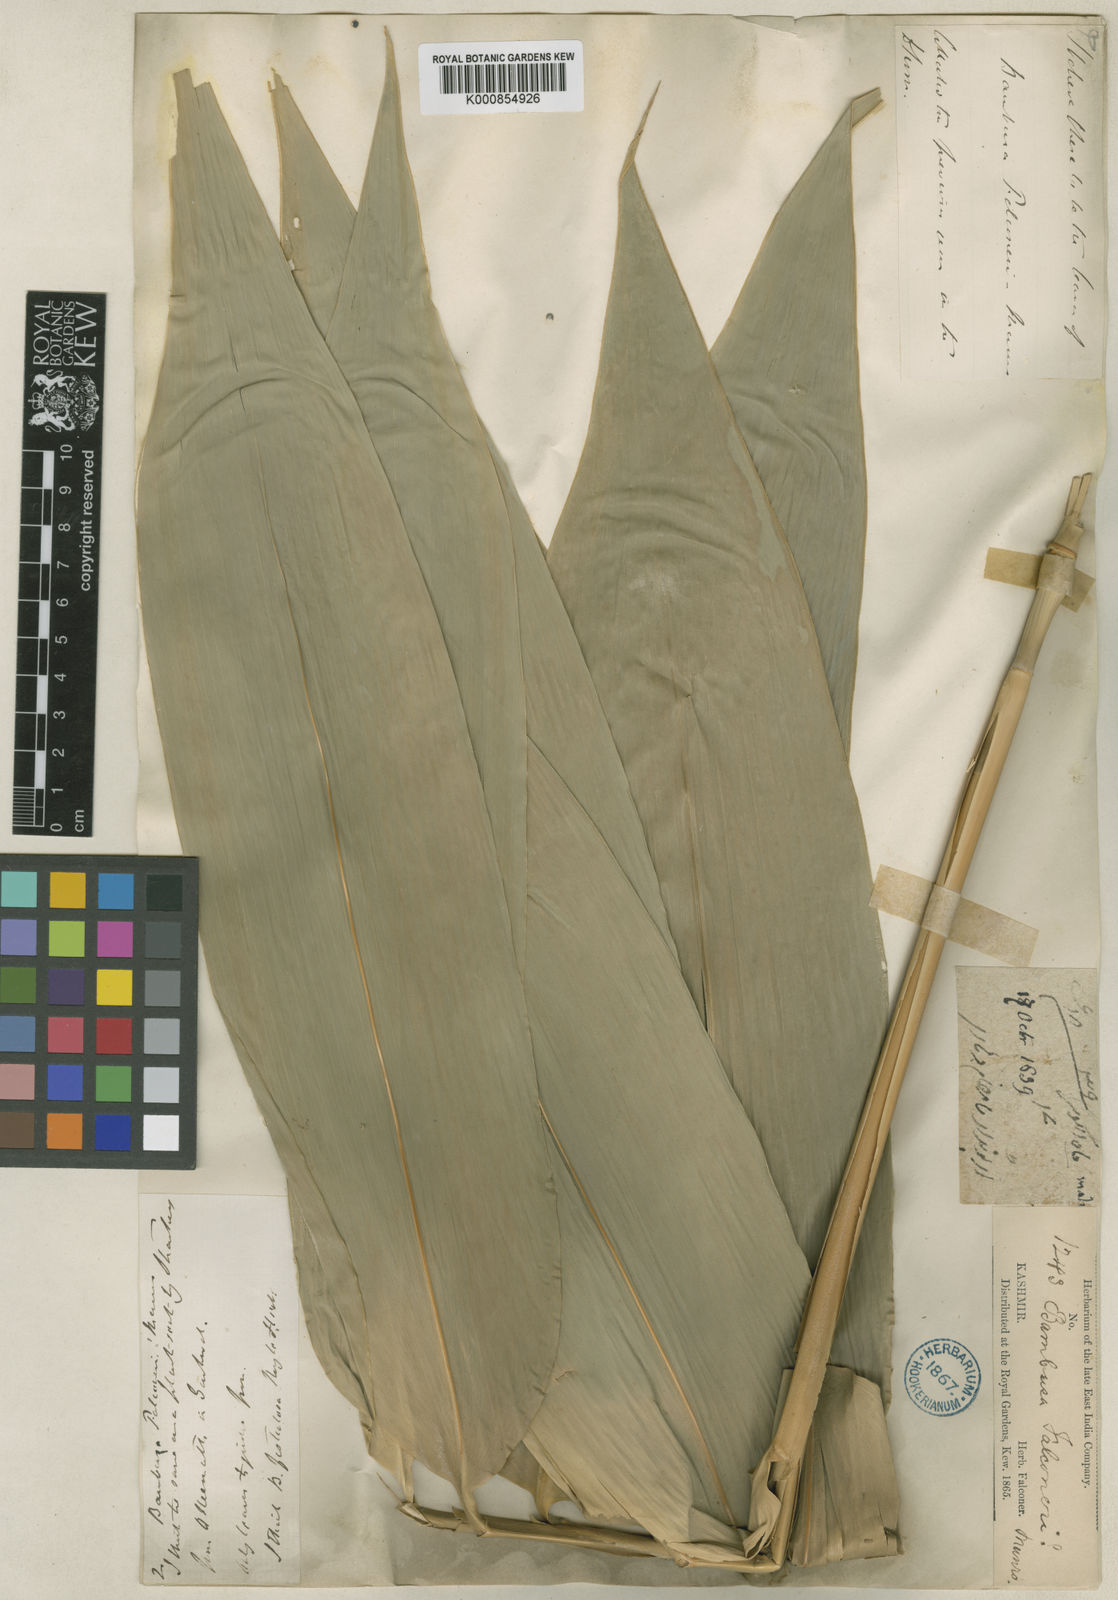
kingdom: Plantae
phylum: Tracheophyta
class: Liliopsida
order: Poales
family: Poaceae
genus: Dendrocalamus
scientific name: Dendrocalamus hamiltonii
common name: Tama bamboo
